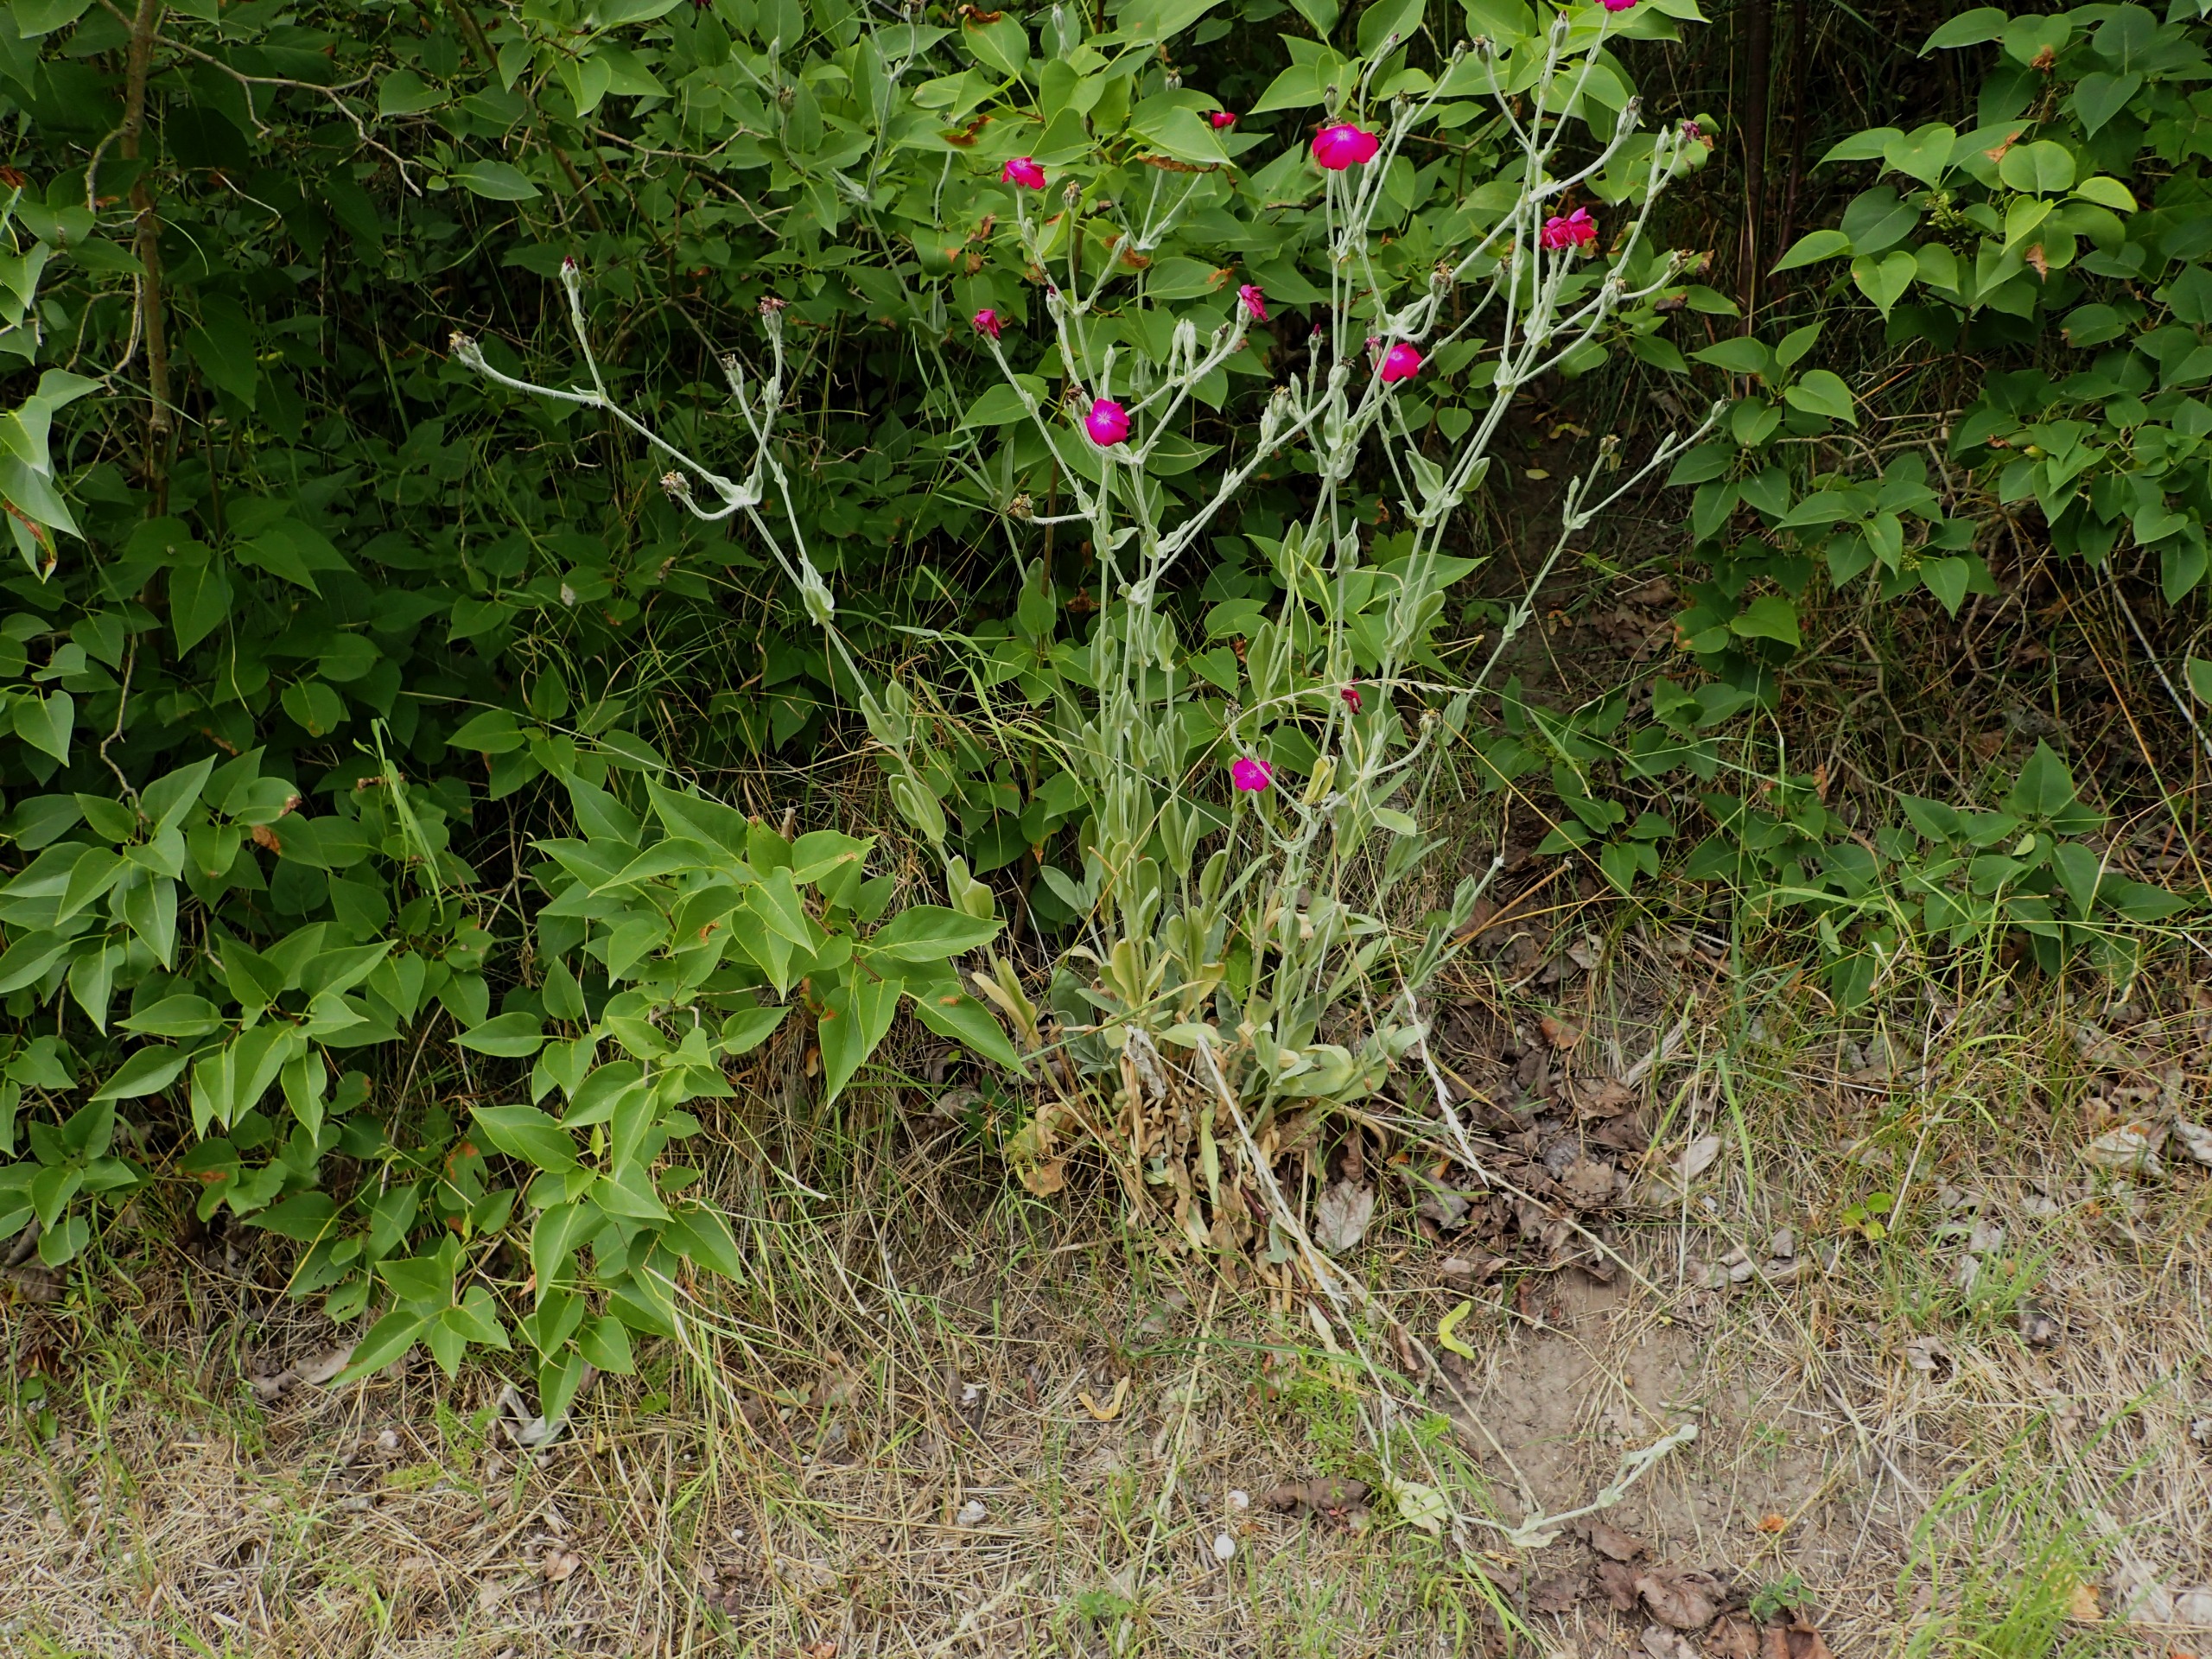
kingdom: Plantae
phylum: Tracheophyta
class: Magnoliopsida
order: Caryophyllales
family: Caryophyllaceae
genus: Silene
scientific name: Silene coronaria
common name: Fiksernellike
